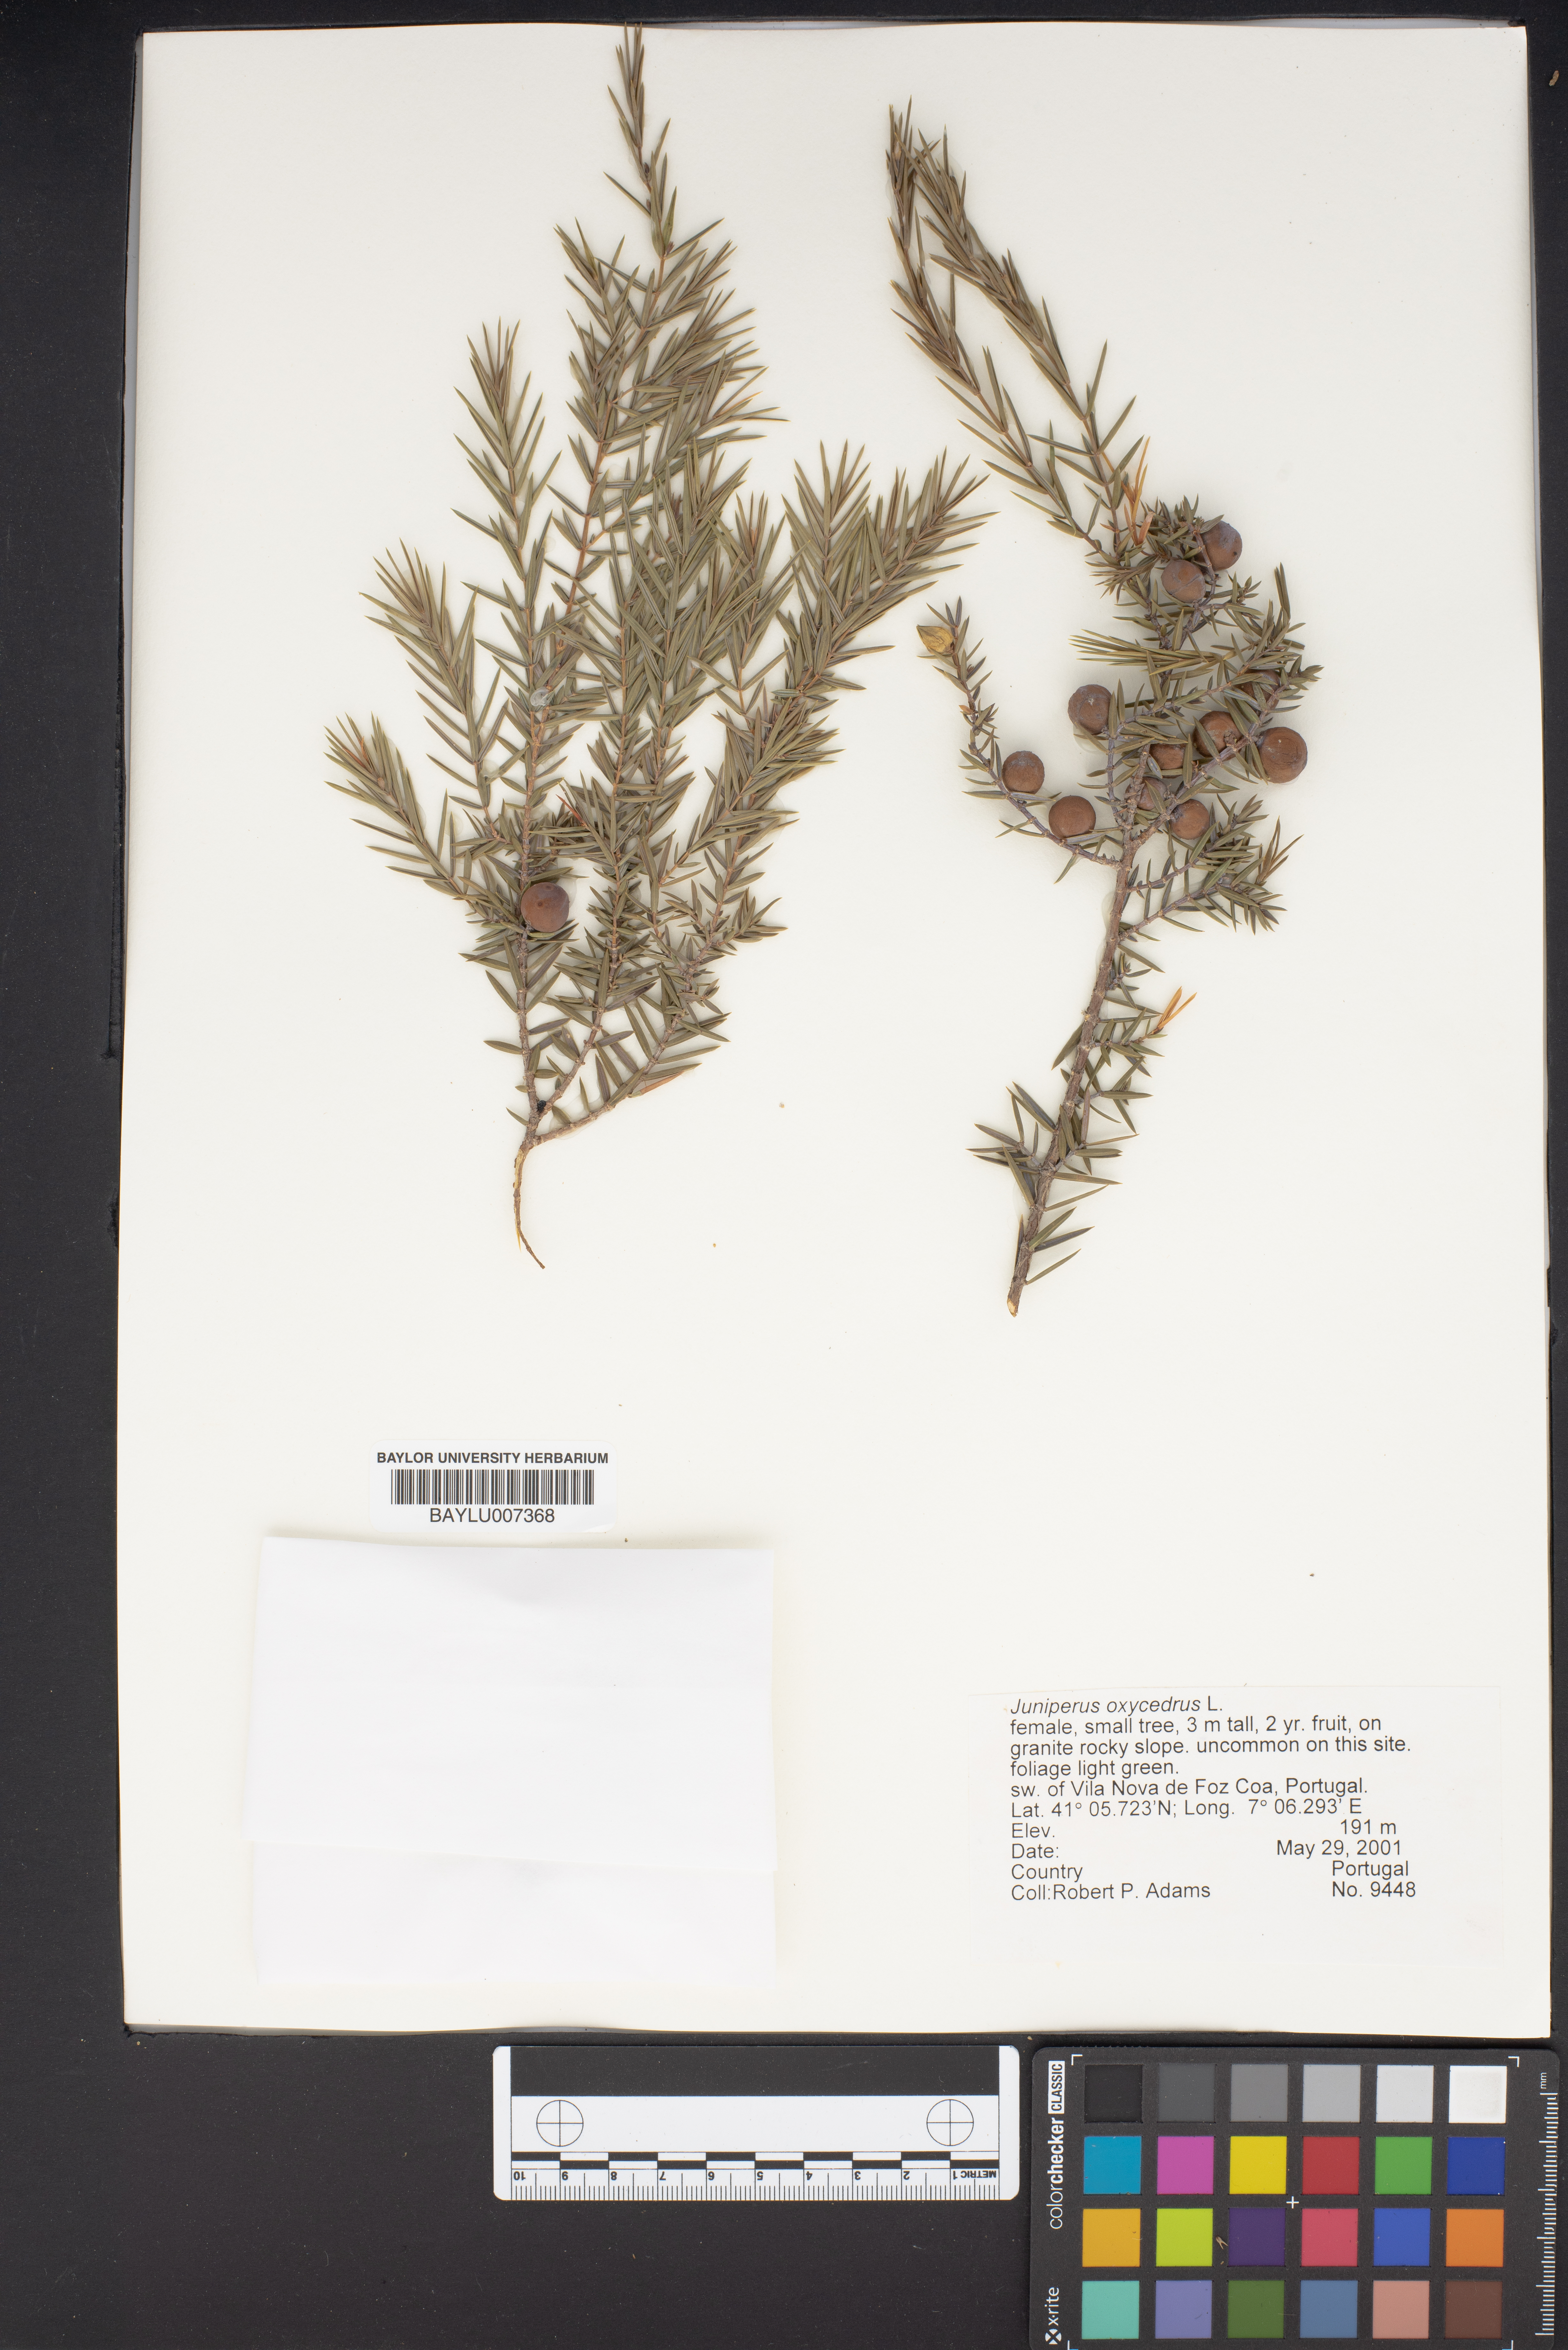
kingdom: Plantae
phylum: Tracheophyta
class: Pinopsida
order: Pinales
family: Cupressaceae
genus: Juniperus
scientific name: Juniperus oxycedrus
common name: Prickly juniper
